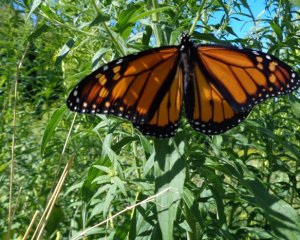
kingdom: Animalia
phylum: Arthropoda
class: Insecta
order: Lepidoptera
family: Nymphalidae
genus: Danaus
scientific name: Danaus plexippus
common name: Monarch
